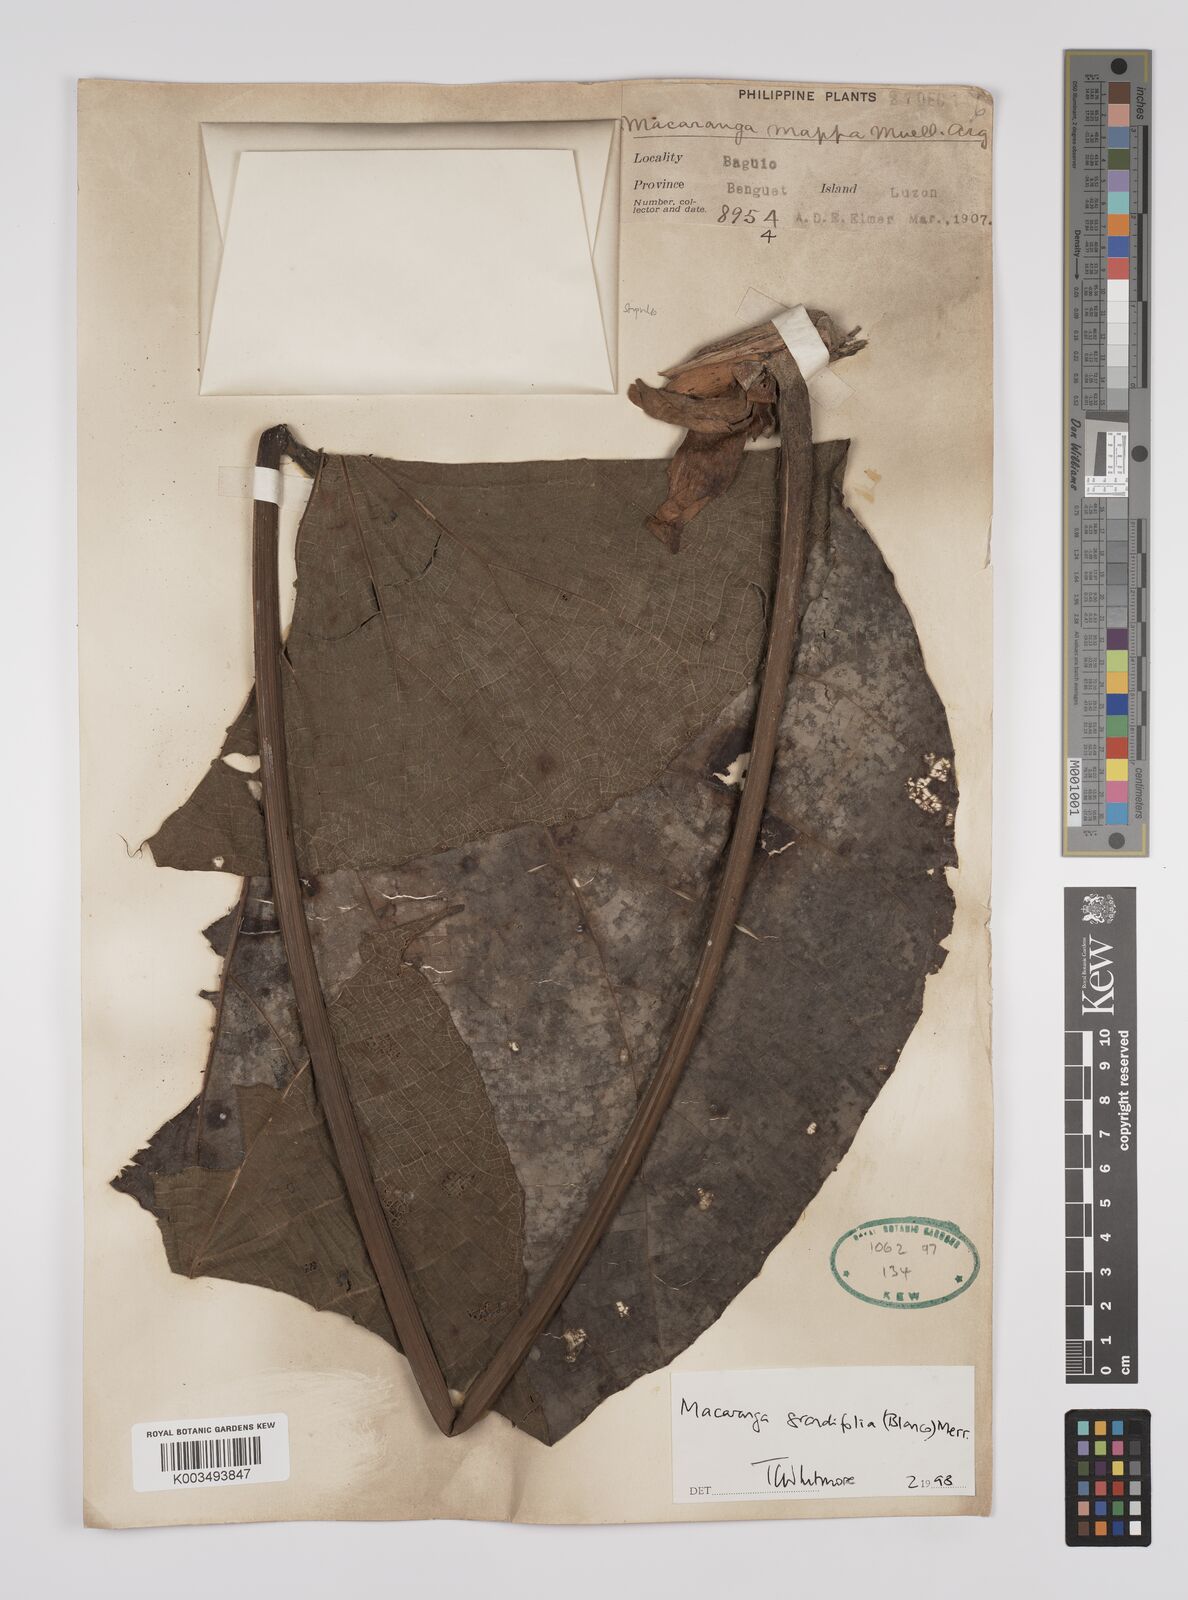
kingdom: Plantae
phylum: Tracheophyta
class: Magnoliopsida
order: Malpighiales
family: Euphorbiaceae
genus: Macaranga
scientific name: Macaranga grandifolia
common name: Coraltree
